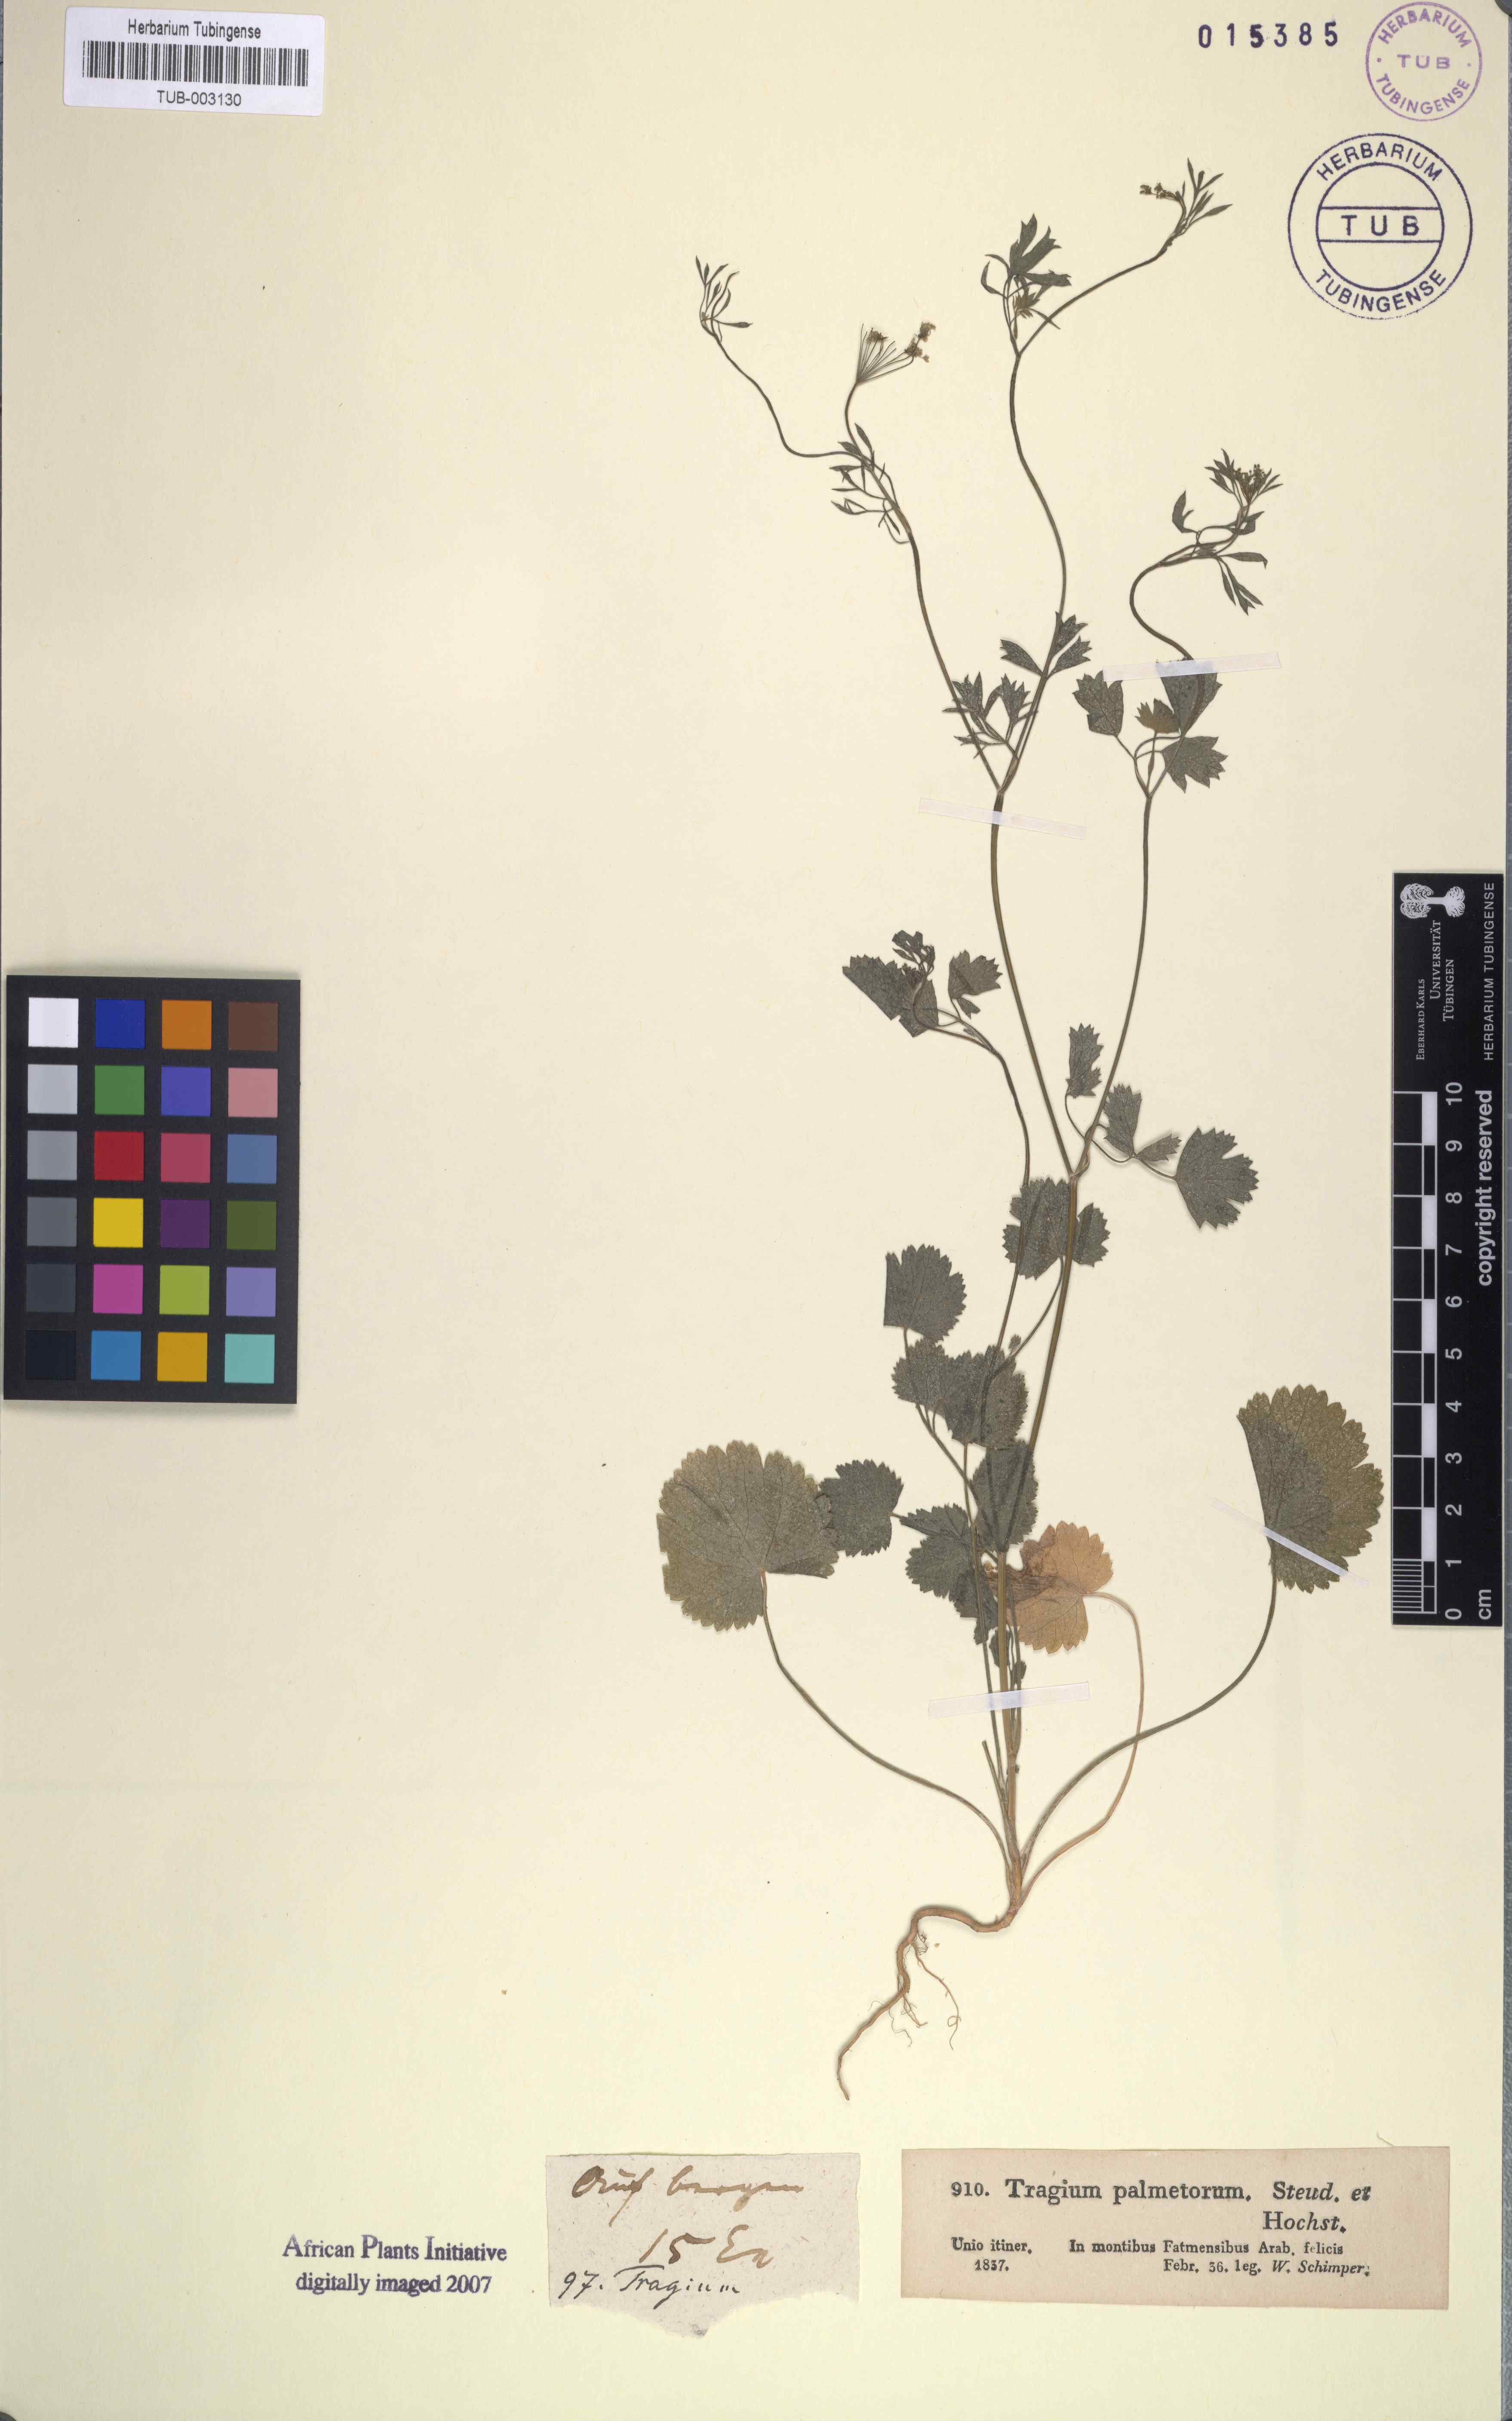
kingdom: Plantae
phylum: Tracheophyta
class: Magnoliopsida
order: Apiales
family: Apiaceae
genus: Pimpinella
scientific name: Pimpinella anisum
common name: Anise burnet saxifrage
